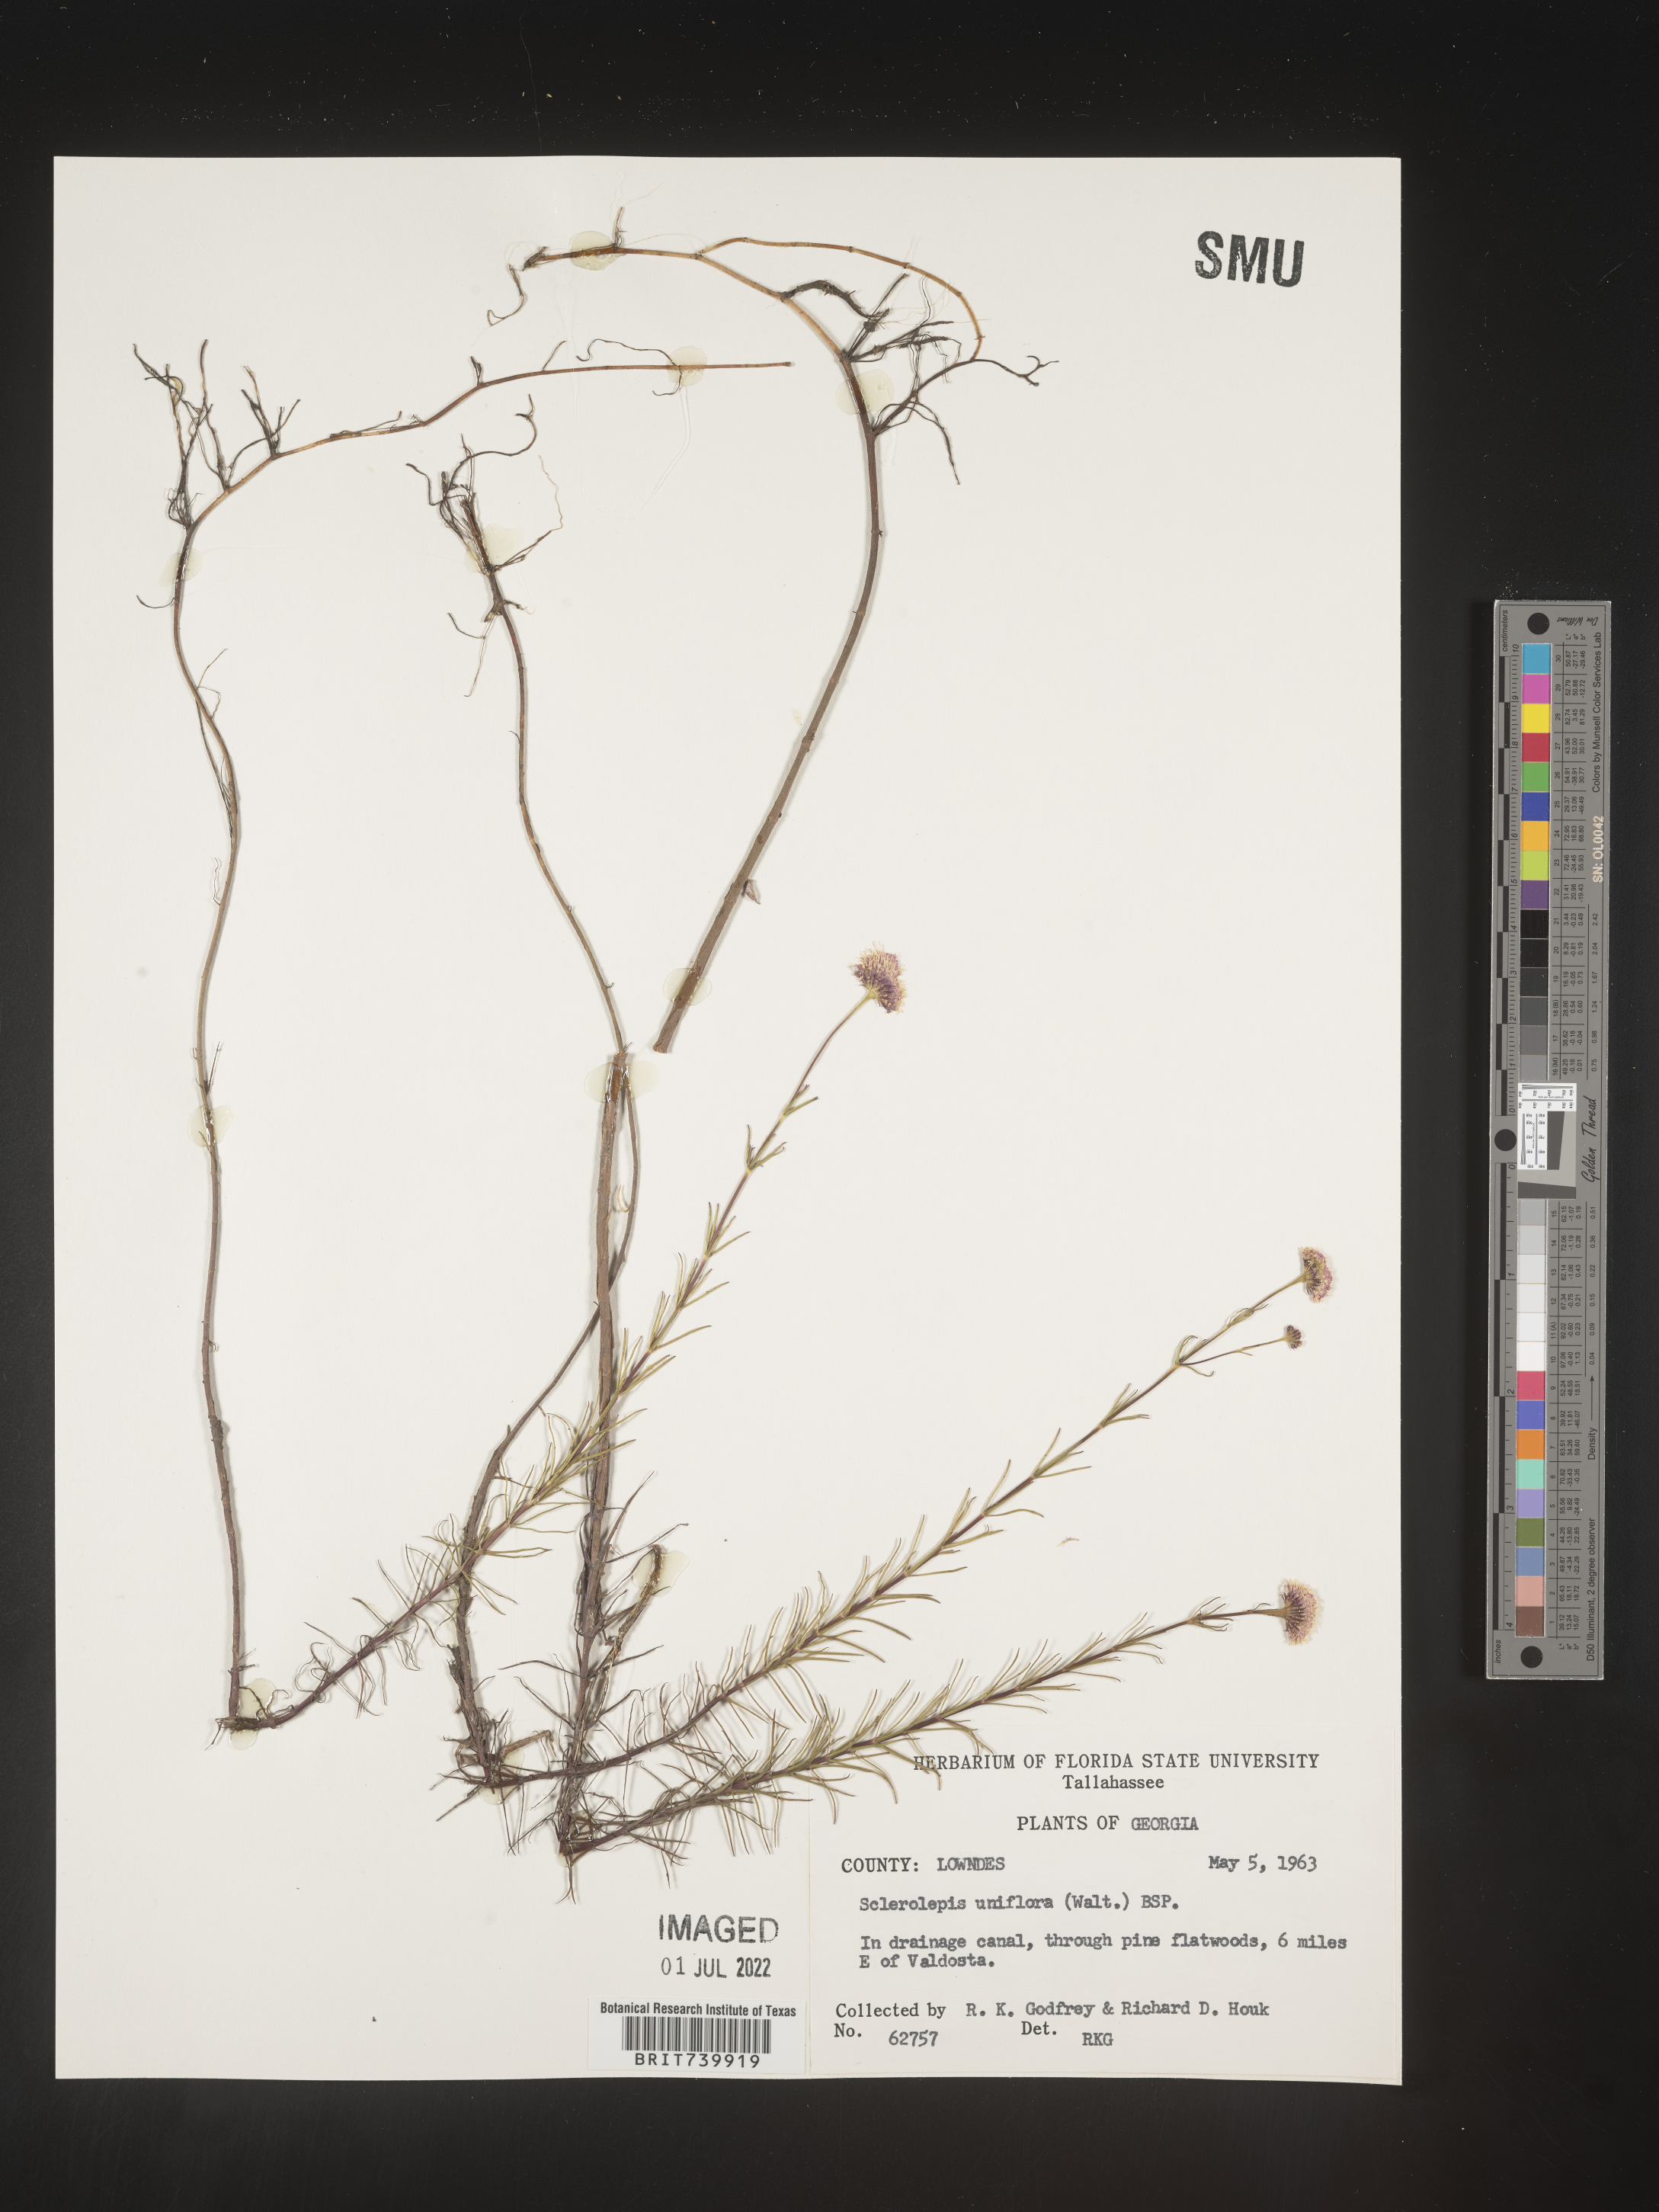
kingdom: Plantae
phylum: Tracheophyta
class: Magnoliopsida
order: Asterales
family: Asteraceae
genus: Sclerolepis
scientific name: Sclerolepis
